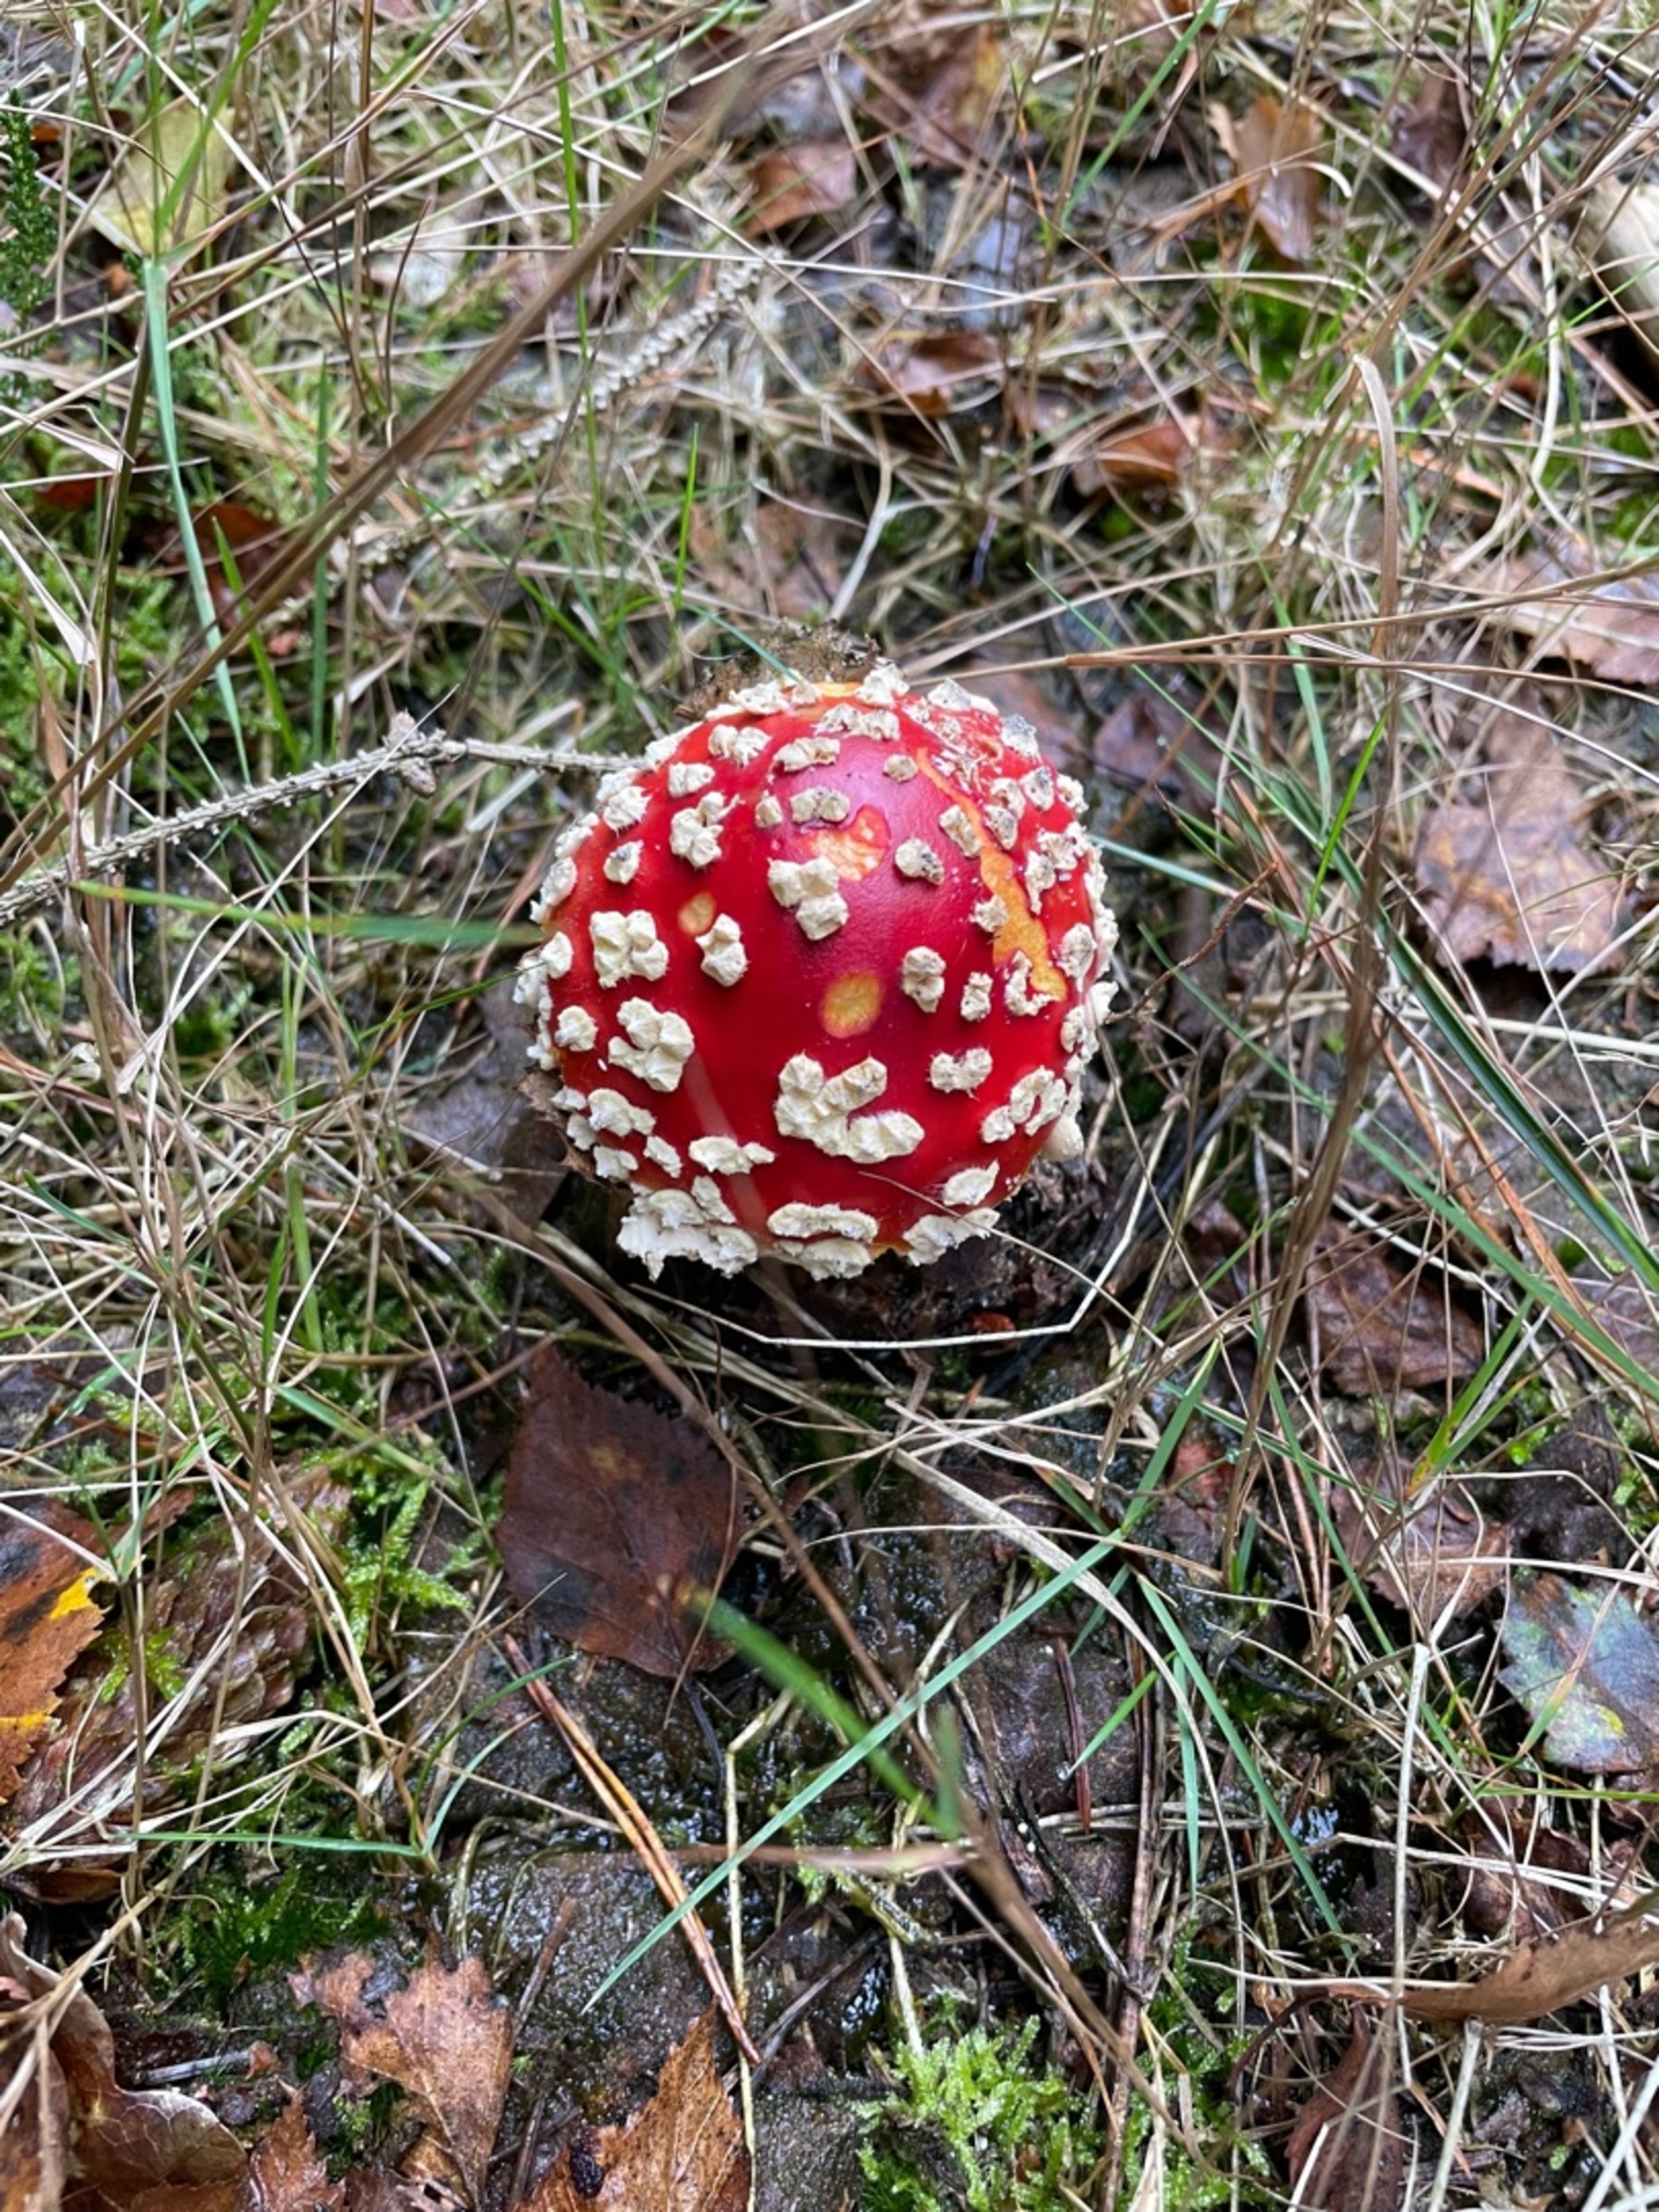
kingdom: Fungi
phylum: Basidiomycota
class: Agaricomycetes
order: Agaricales
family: Amanitaceae
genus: Amanita
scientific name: Amanita muscaria
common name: Rød fluesvamp
